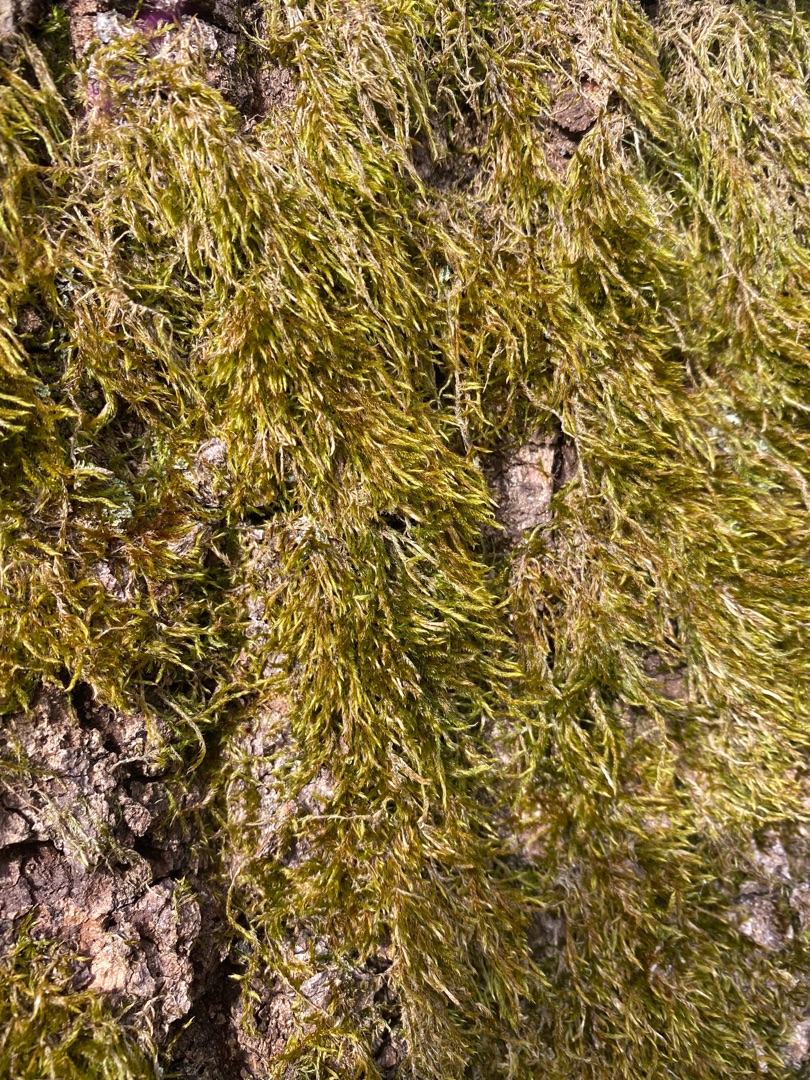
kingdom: Plantae
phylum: Bryophyta
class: Bryopsida
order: Hypnales
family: Hypnaceae
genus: Hypnum
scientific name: Hypnum
